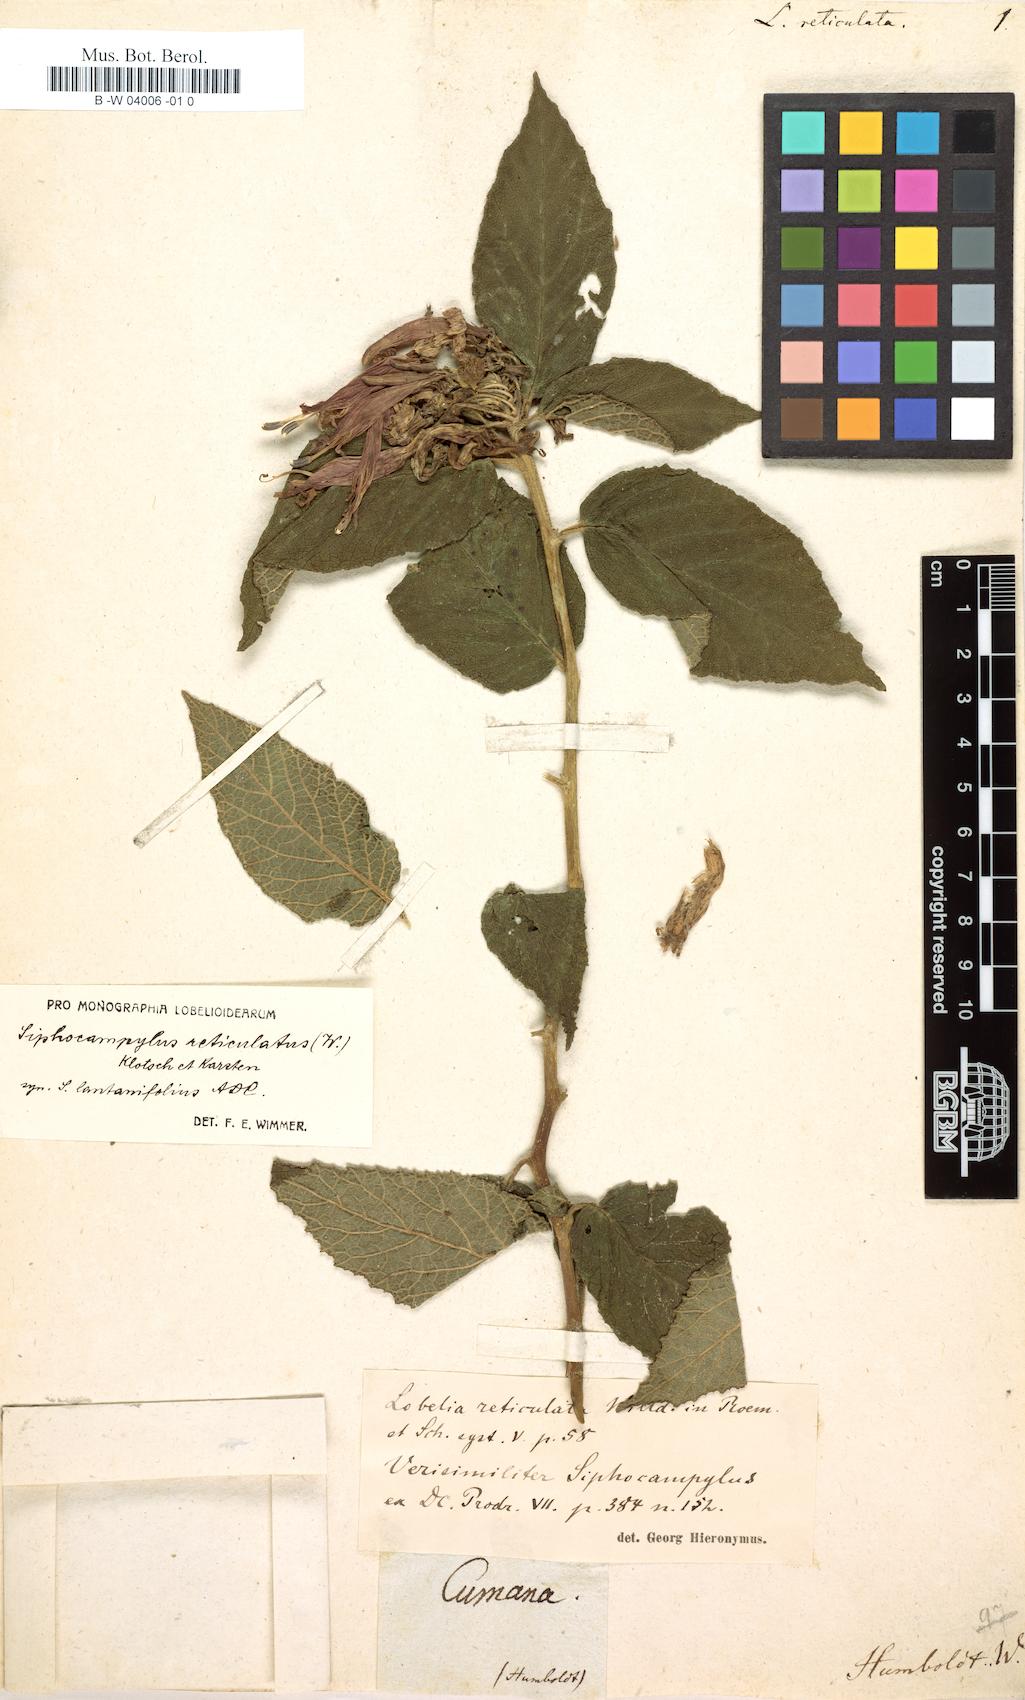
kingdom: Plantae
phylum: Tracheophyta
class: Magnoliopsida
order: Asterales
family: Campanulaceae
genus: Lobelia
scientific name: Lobelia reticulata
